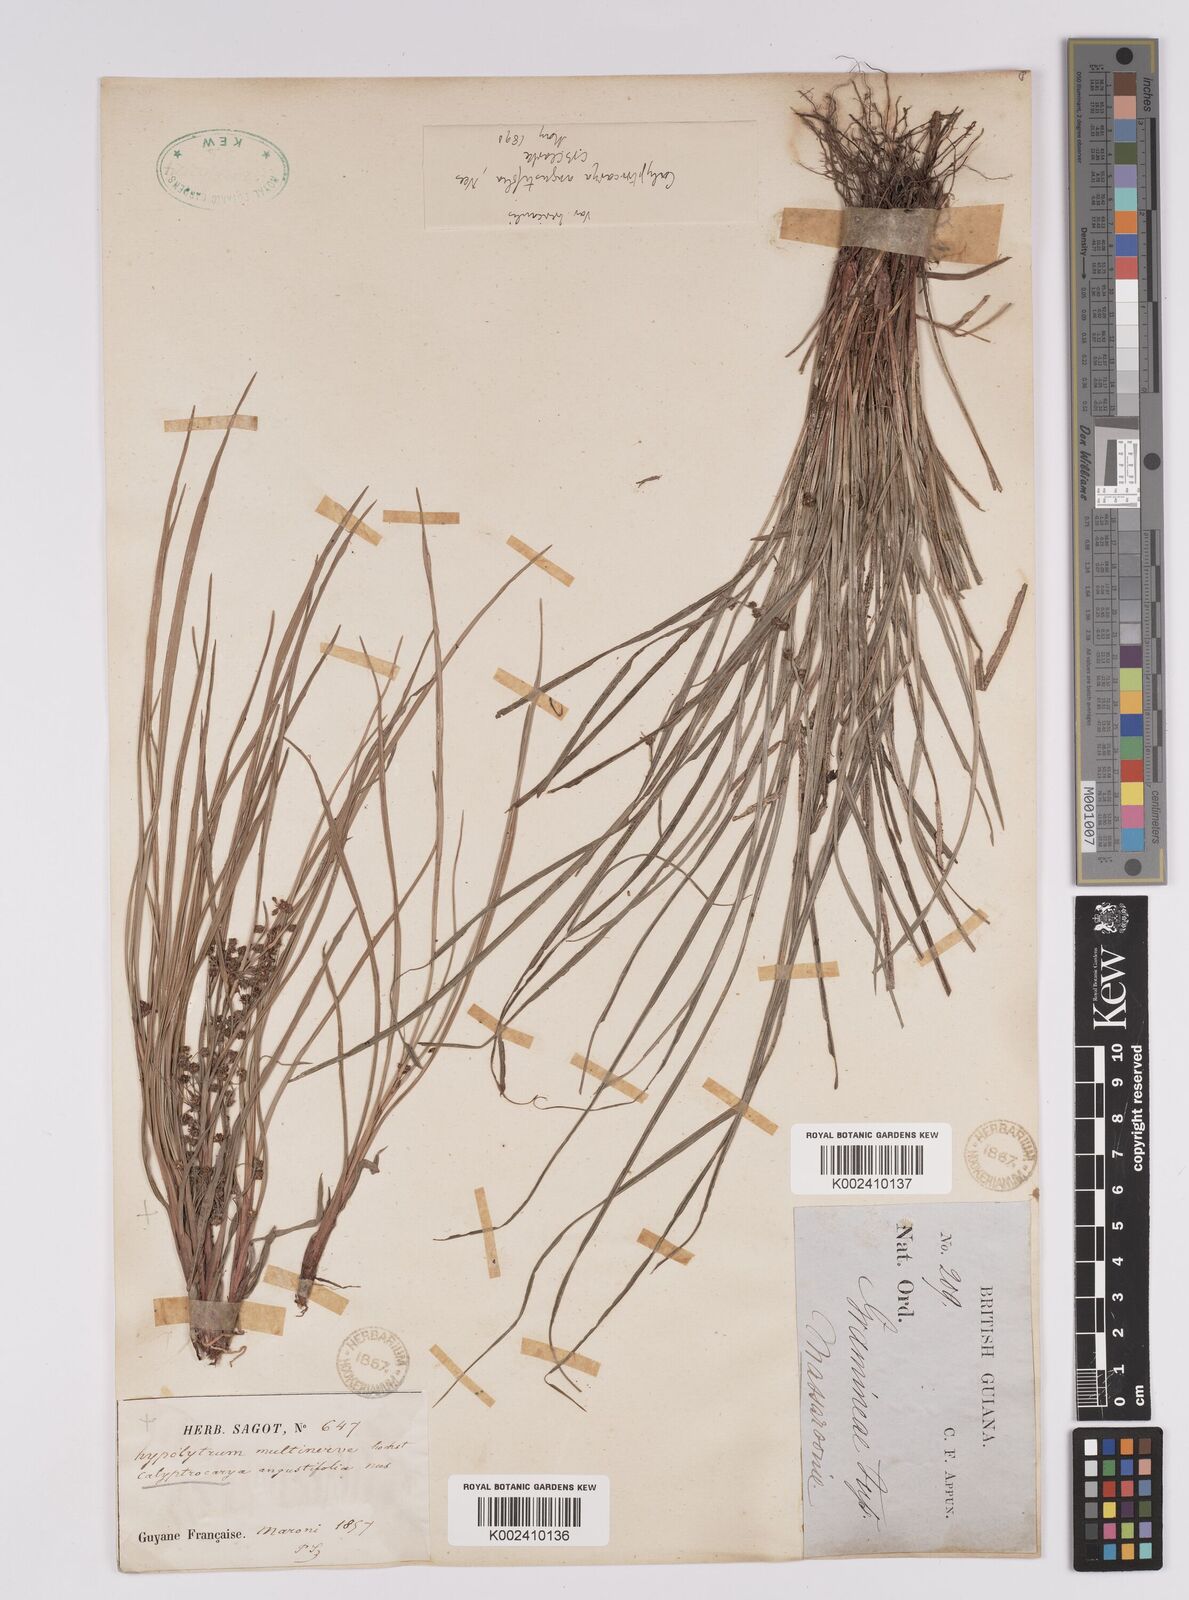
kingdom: Plantae
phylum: Tracheophyta
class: Liliopsida
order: Poales
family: Cyperaceae
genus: Calyptrocarya
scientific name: Calyptrocarya glomerulata
